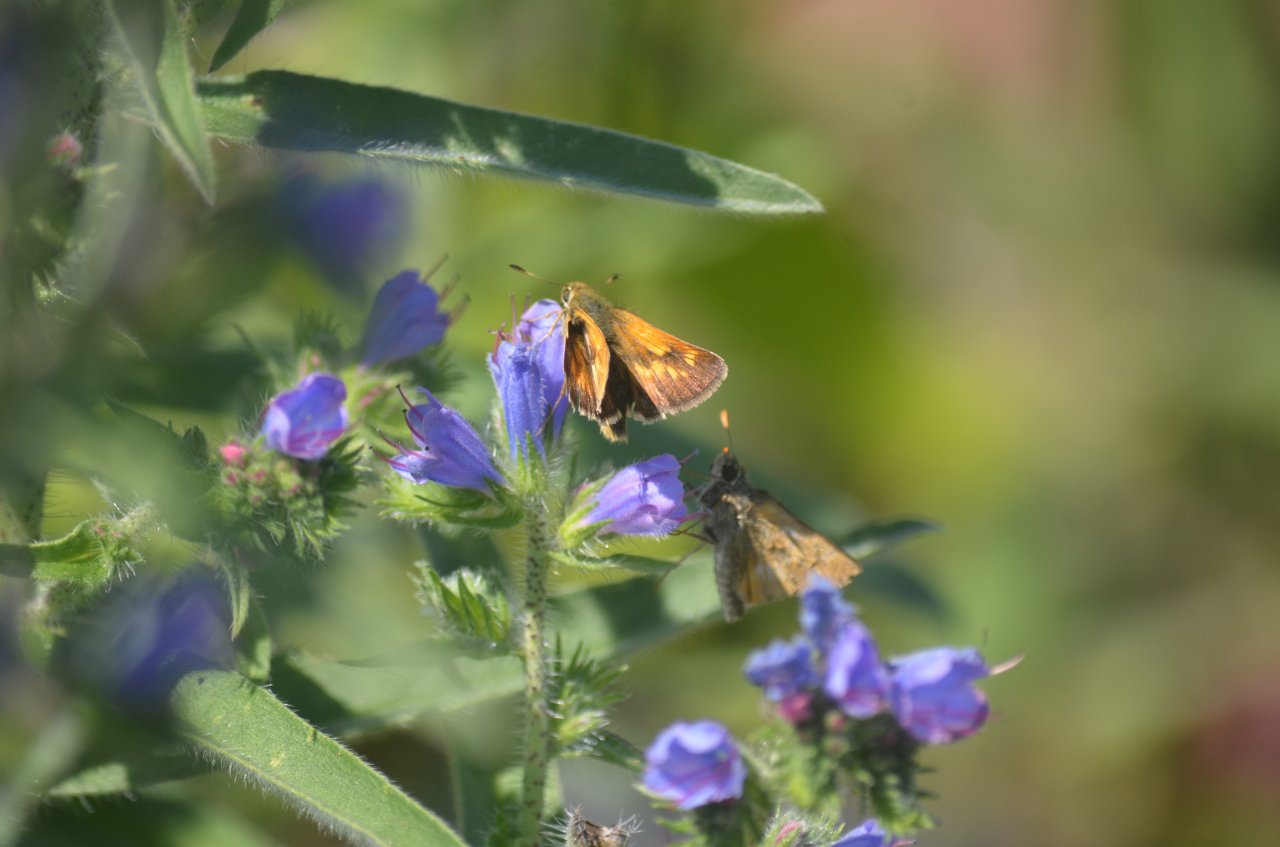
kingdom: Animalia
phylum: Arthropoda
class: Insecta
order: Lepidoptera
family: Hesperiidae
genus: Polites
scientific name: Polites
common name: Long Dash Skipper
